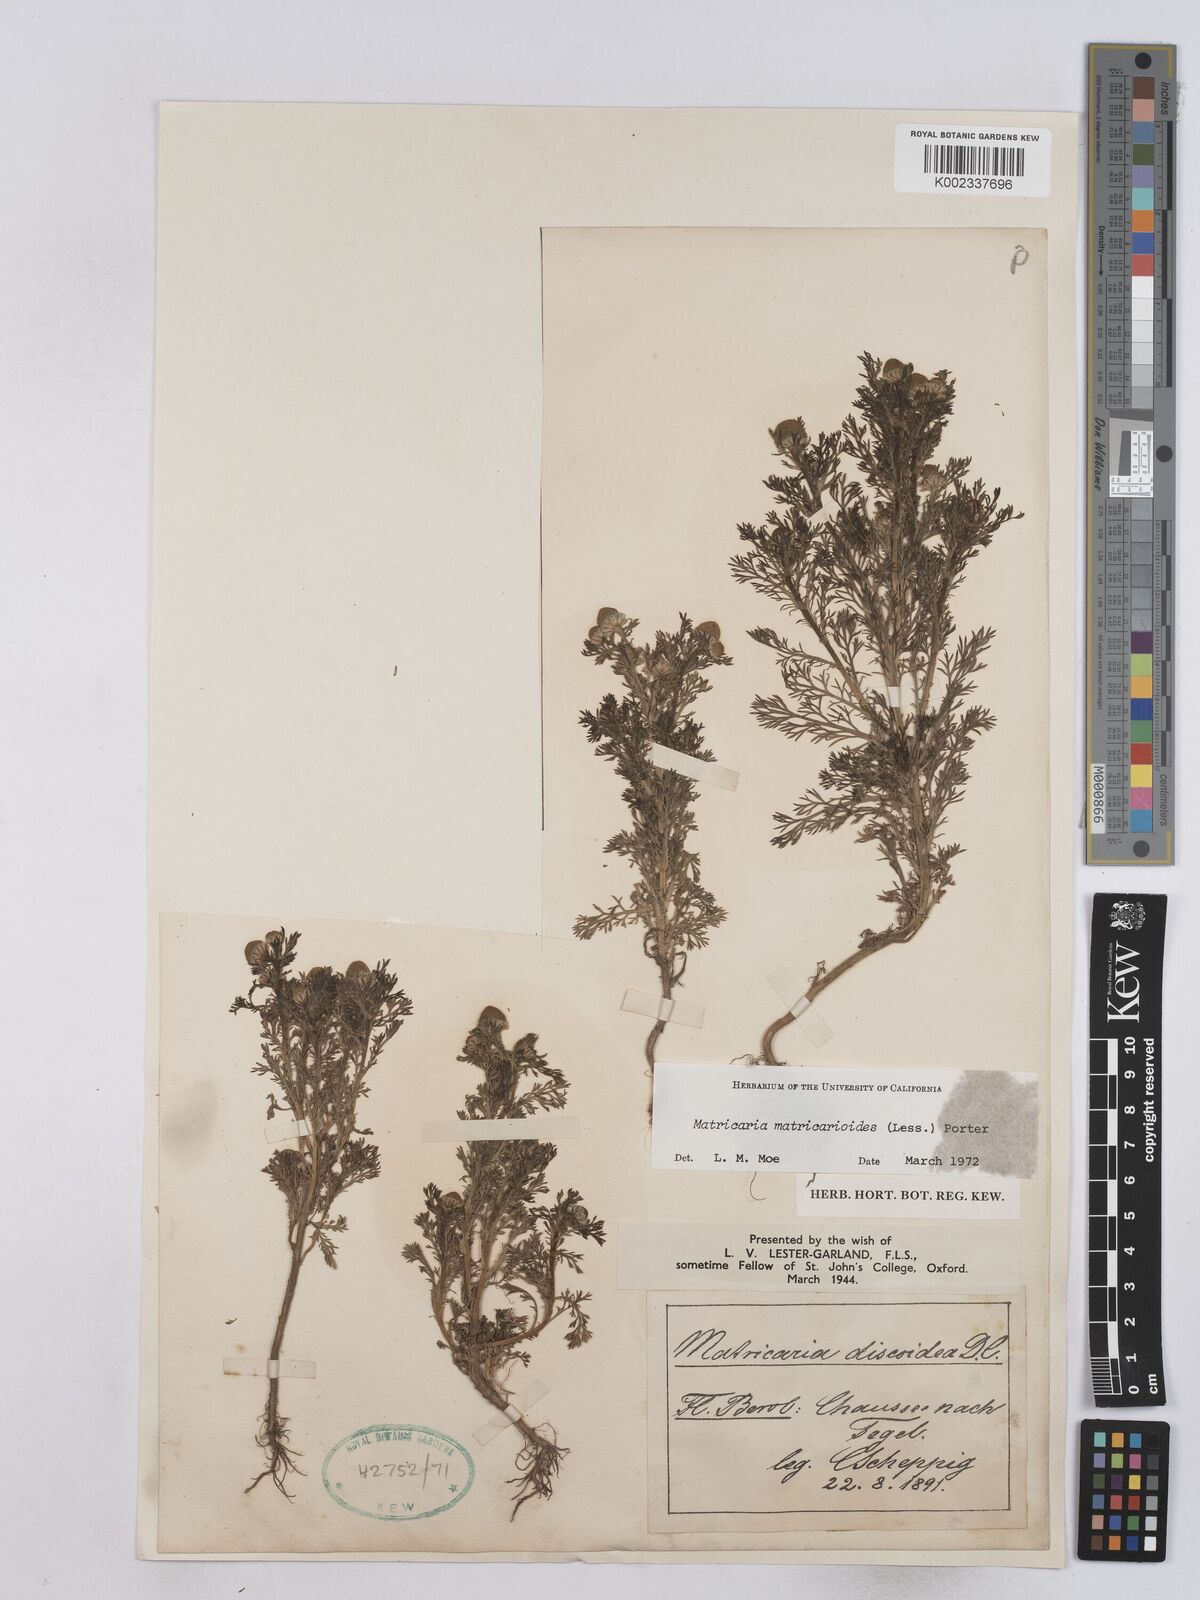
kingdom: Plantae
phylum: Tracheophyta
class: Magnoliopsida
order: Asterales
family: Asteraceae
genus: Matricaria
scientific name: Matricaria discoidea
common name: Disc mayweed
